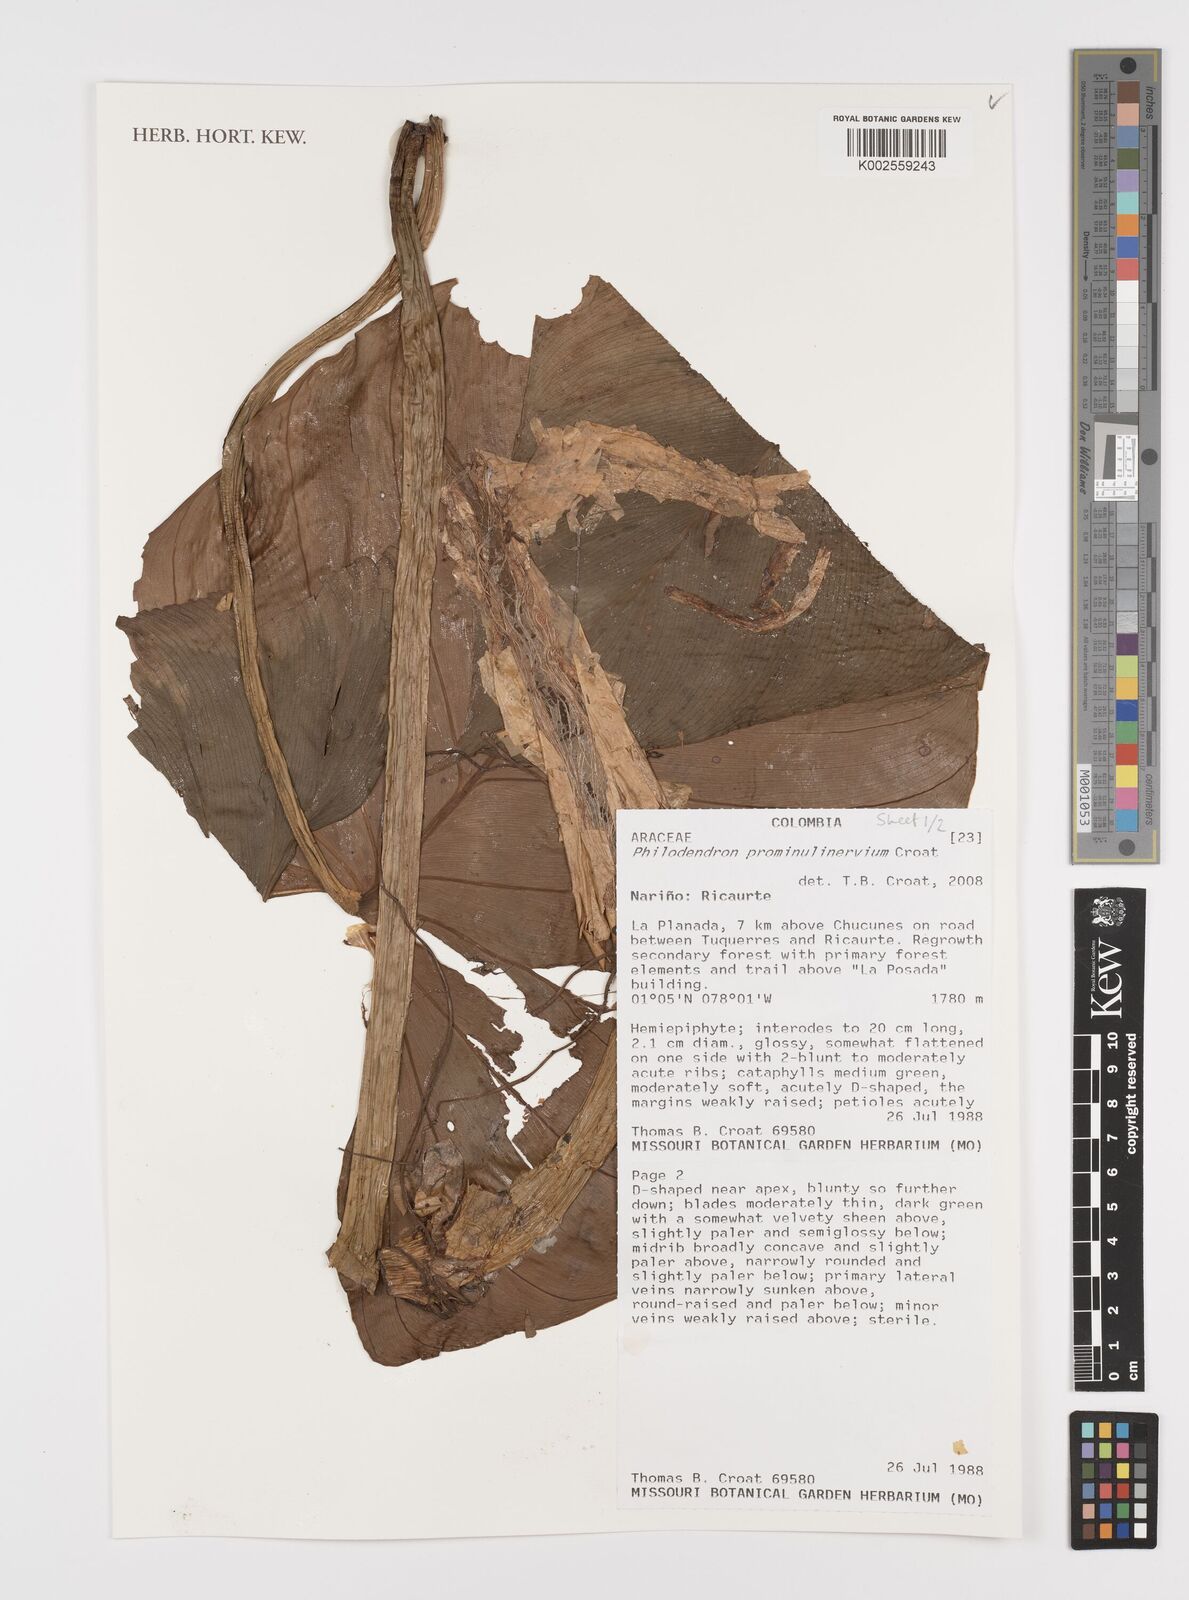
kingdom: Plantae
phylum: Tracheophyta
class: Liliopsida
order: Alismatales
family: Araceae
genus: Philodendron
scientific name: Philodendron prominulinervium
